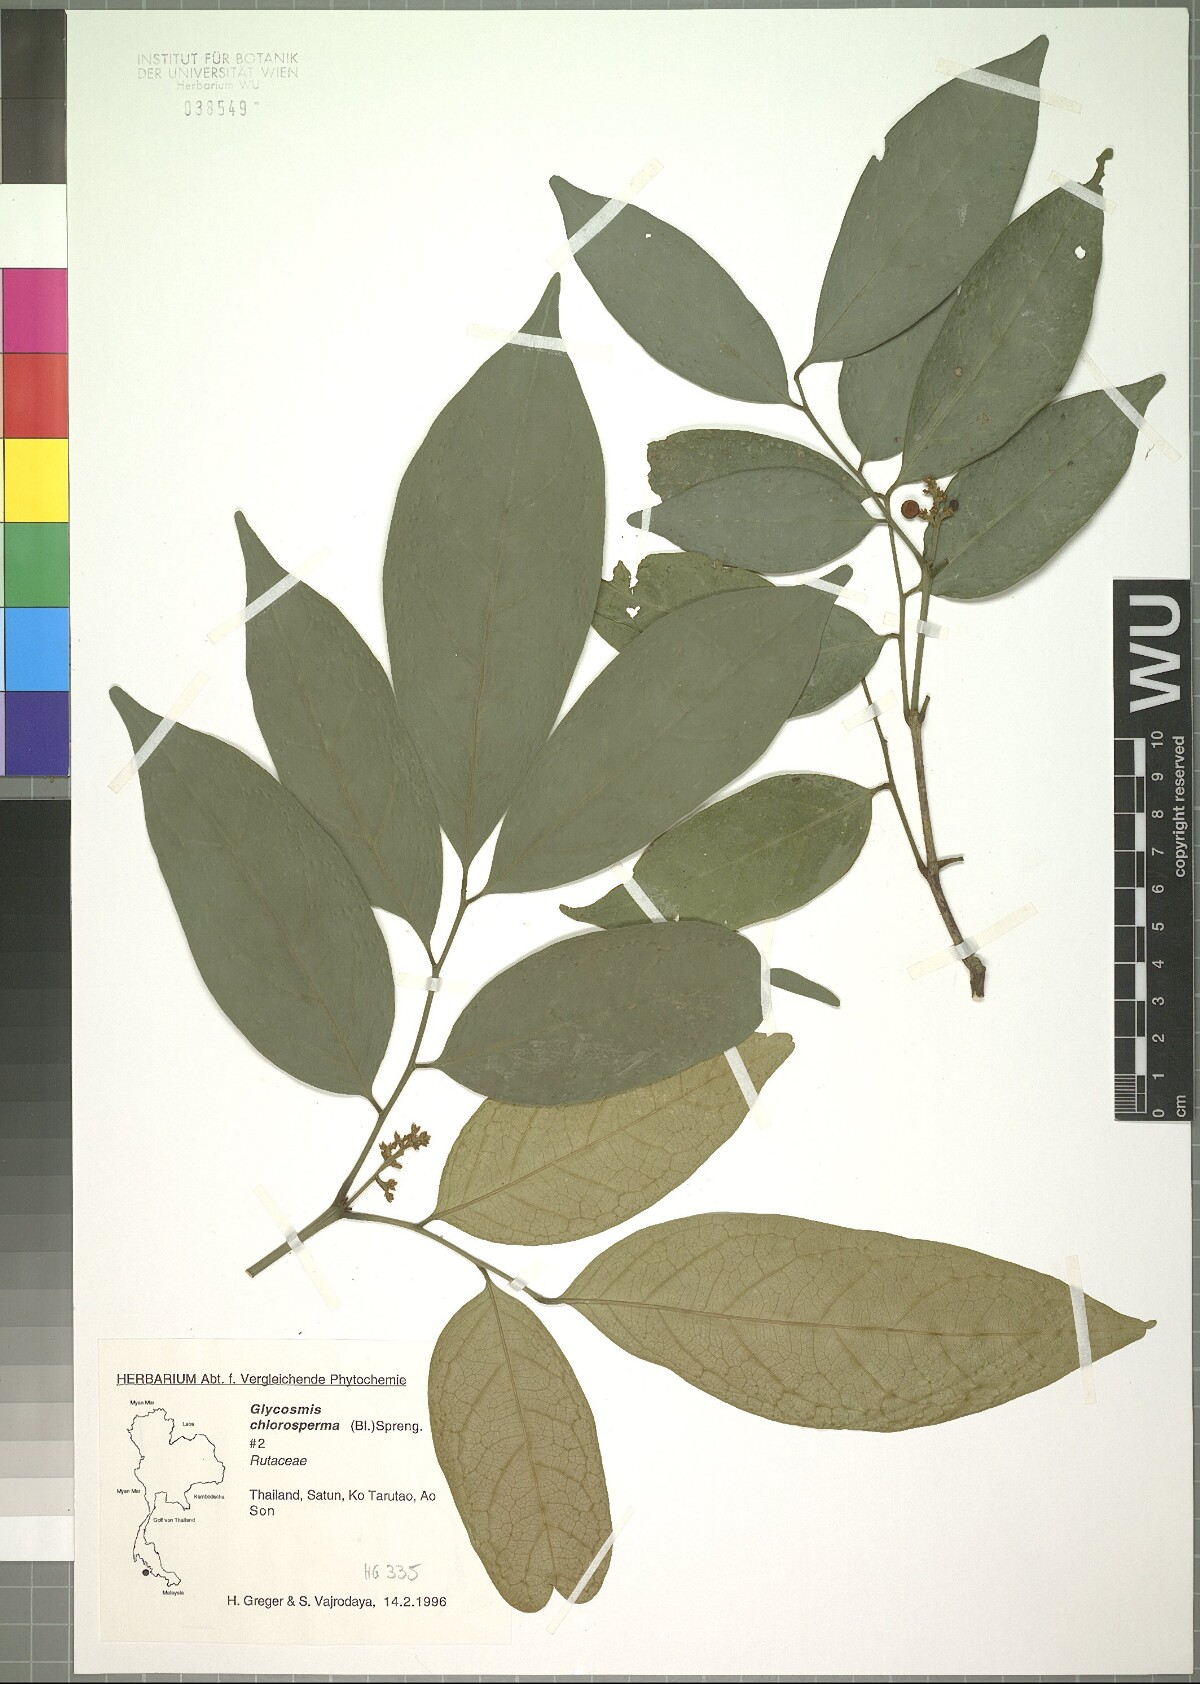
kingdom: Plantae
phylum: Tracheophyta
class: Magnoliopsida
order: Sapindales
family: Rutaceae
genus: Glycosmis
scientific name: Glycosmis chlorosperma
